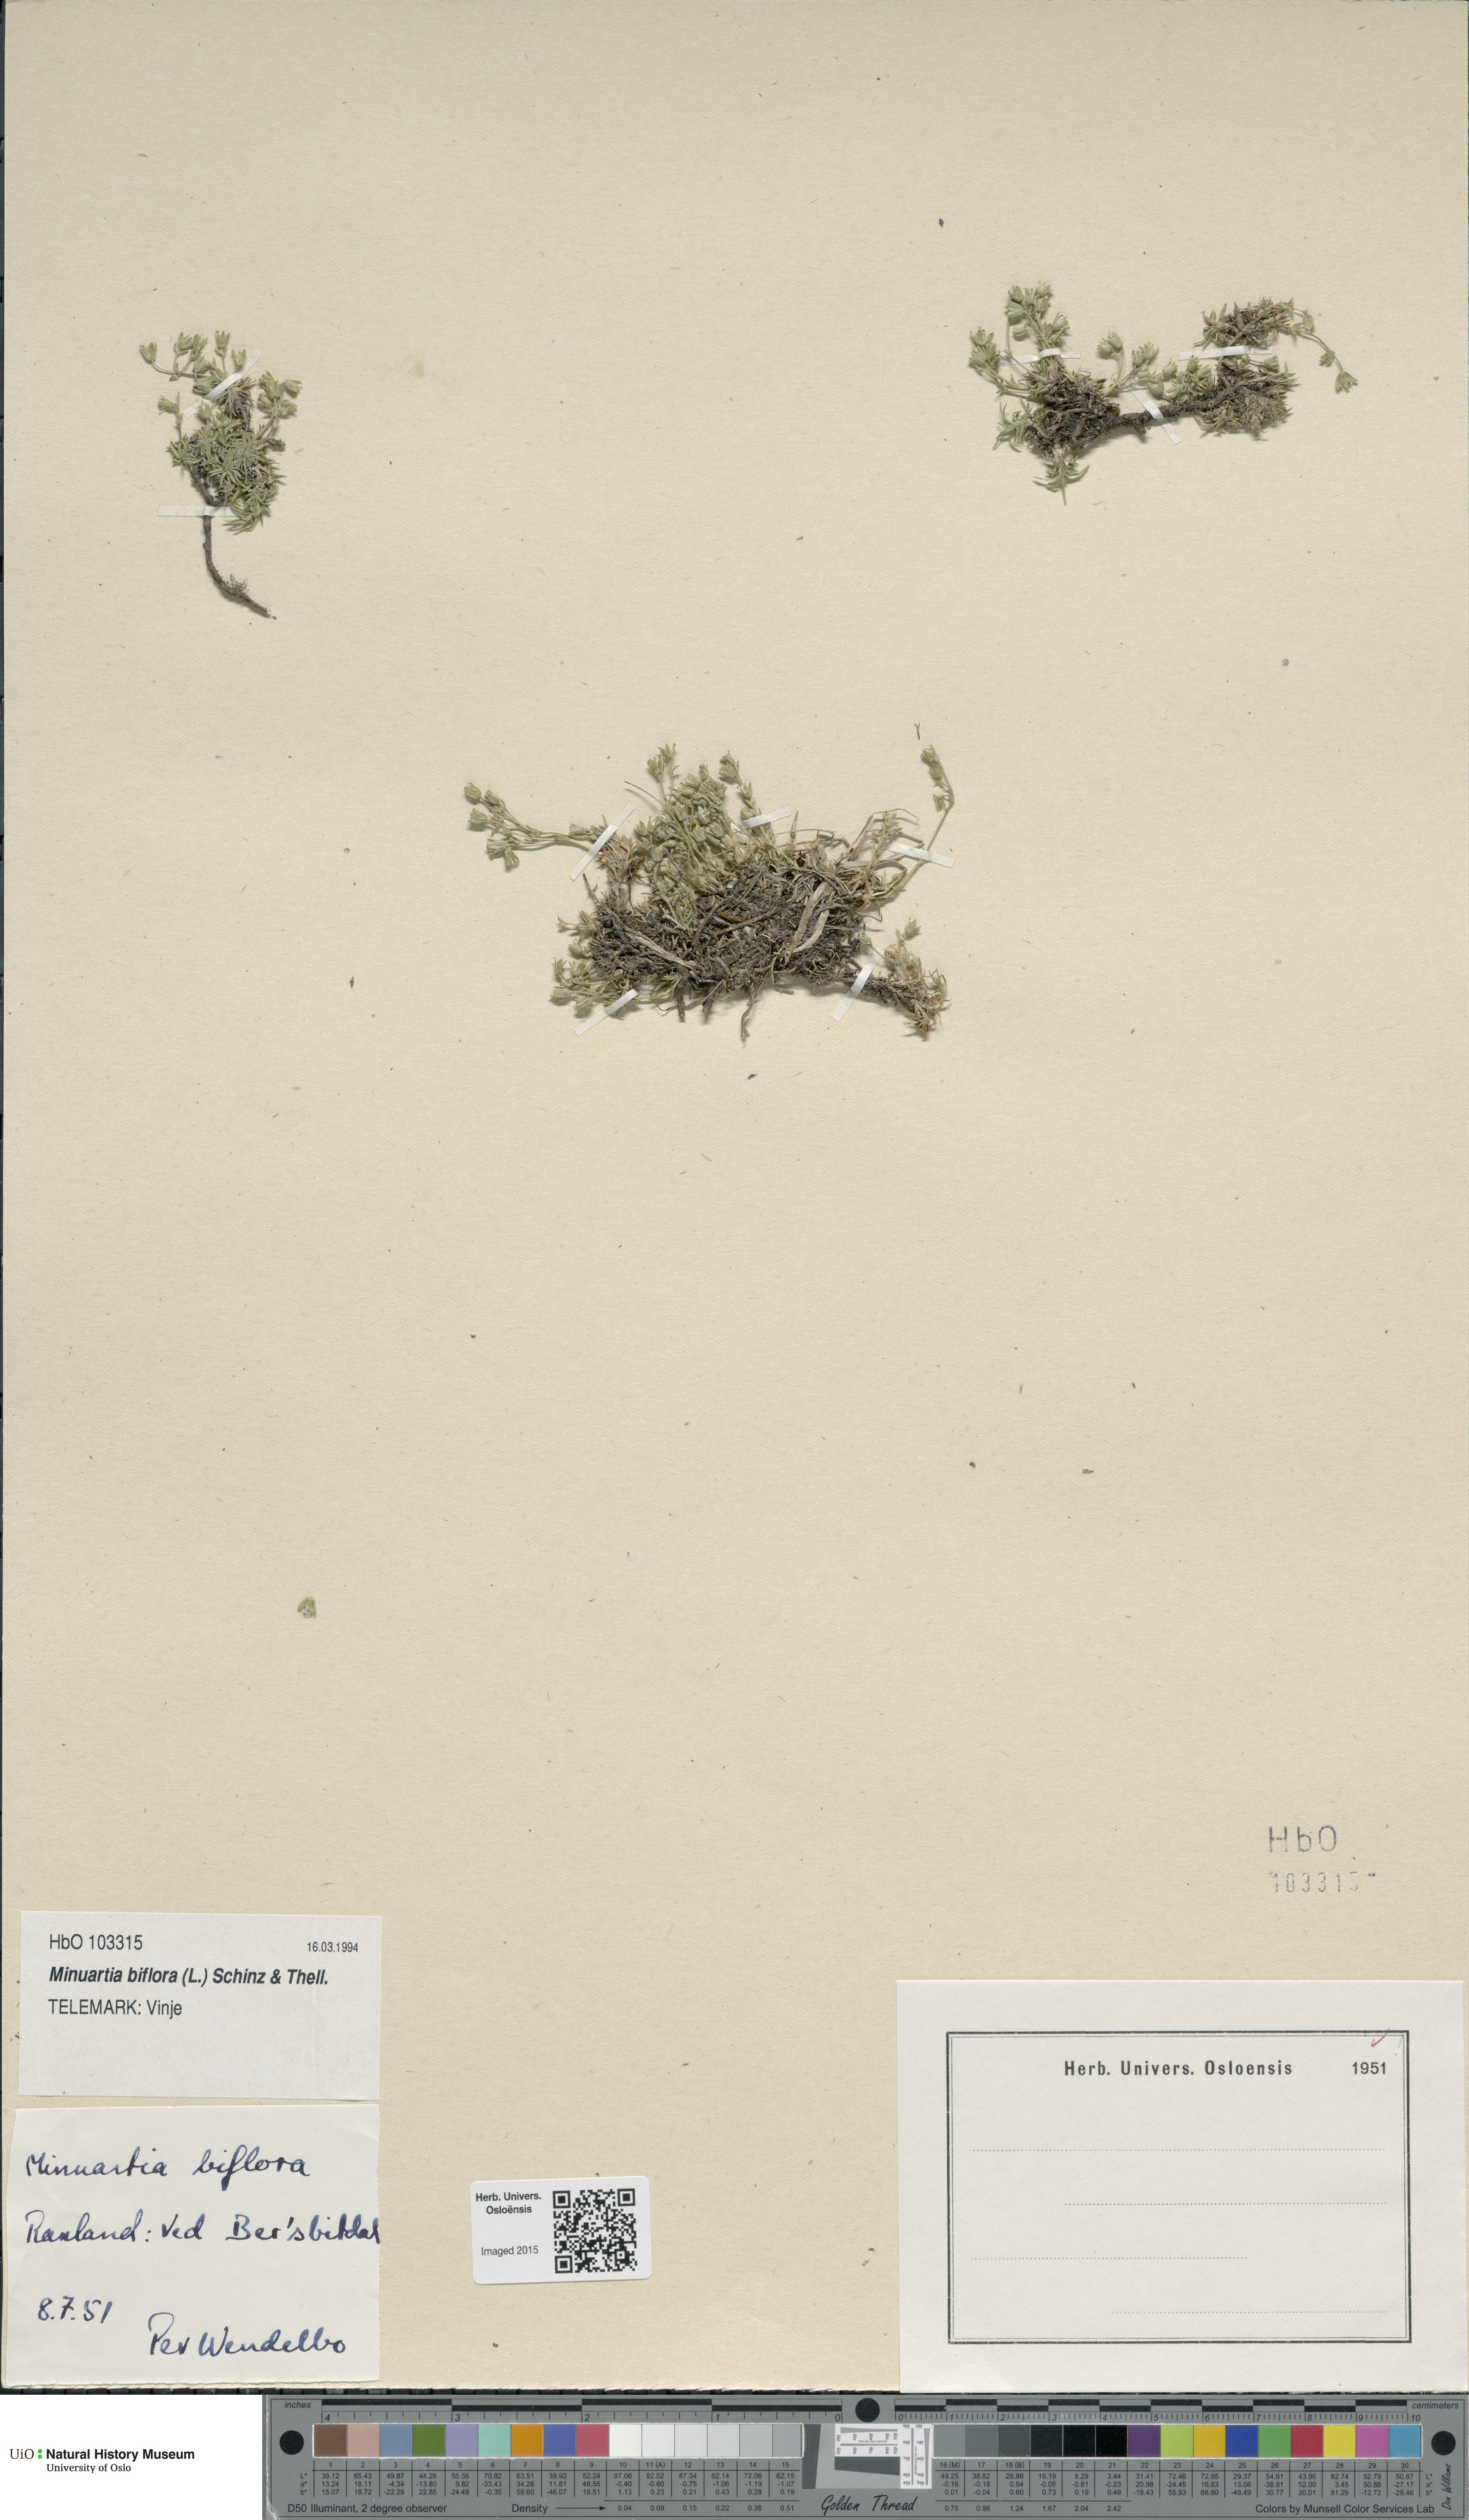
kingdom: Plantae
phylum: Tracheophyta
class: Magnoliopsida
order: Caryophyllales
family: Caryophyllaceae
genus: Cherleria
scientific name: Cherleria biflora
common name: Mountain sandwort
